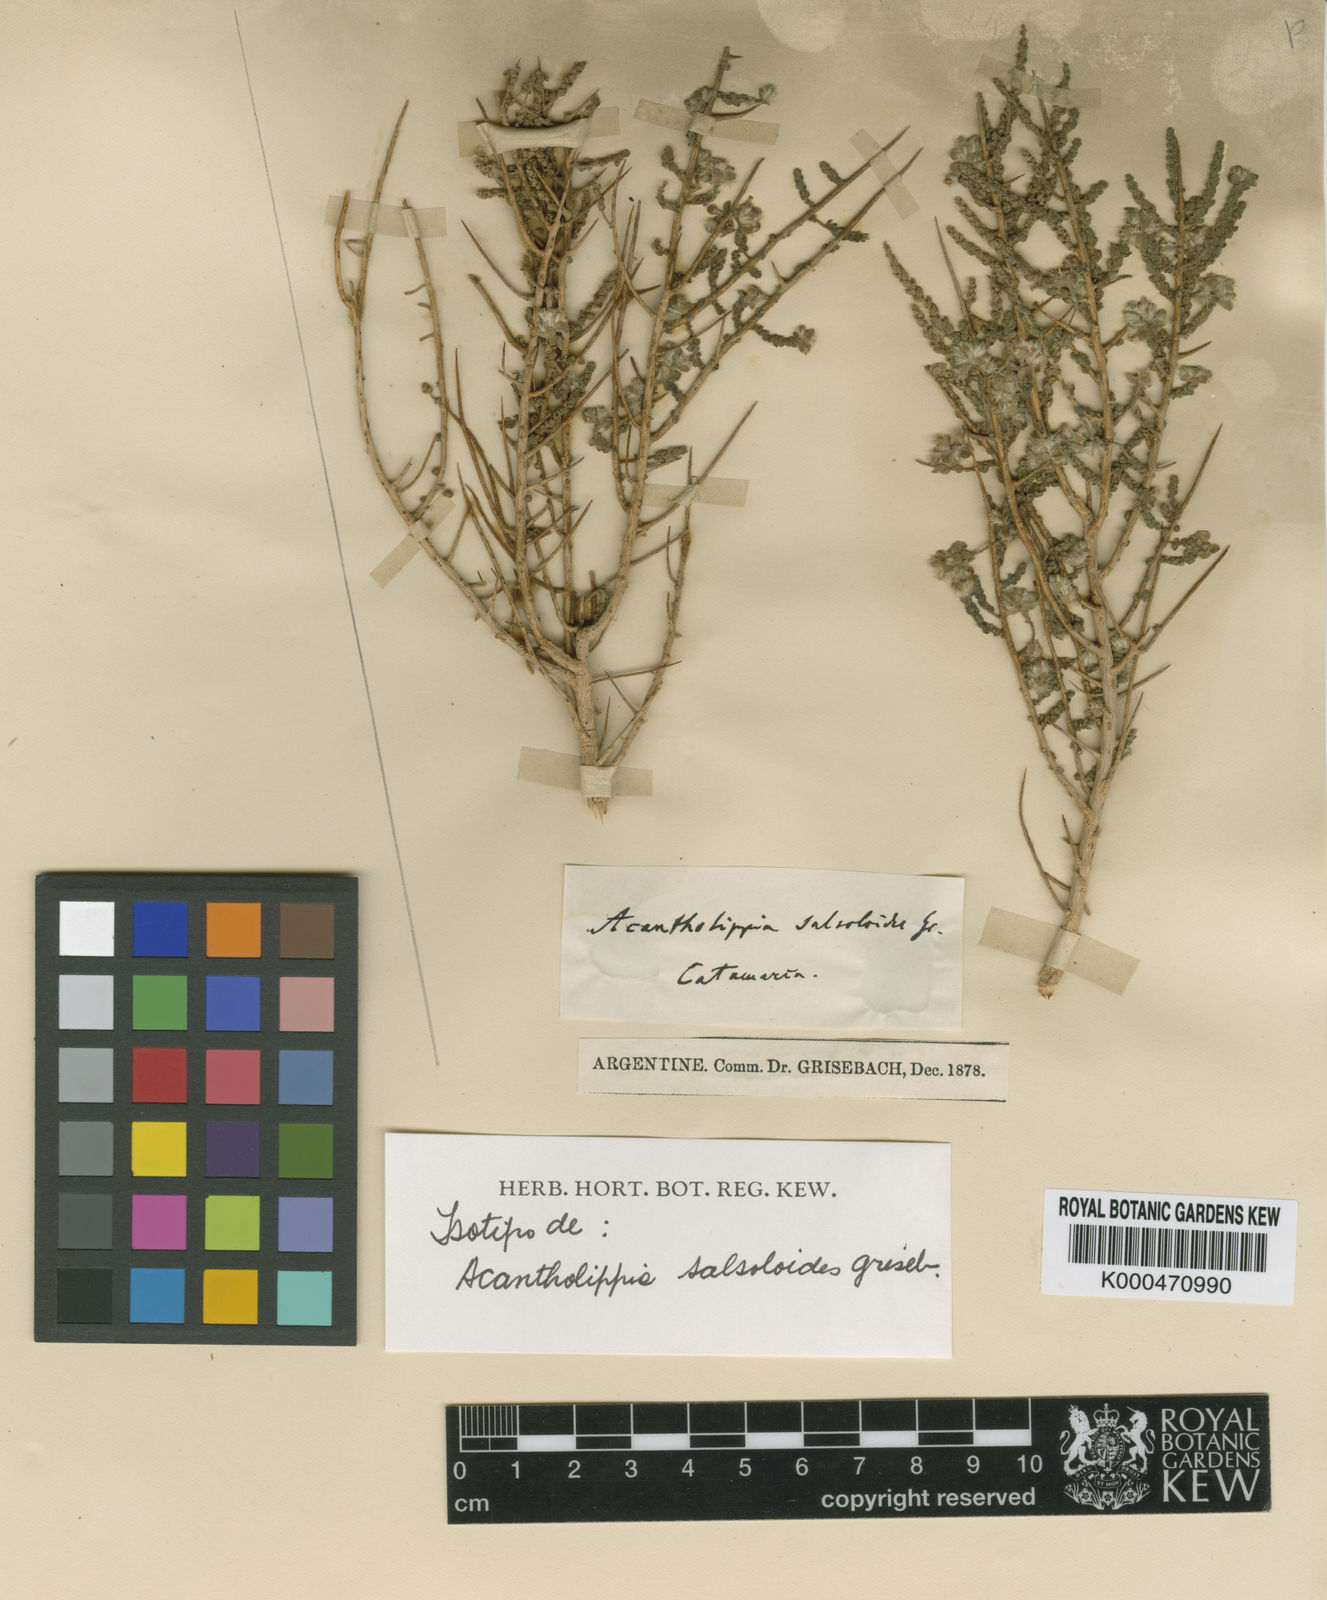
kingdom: Plantae
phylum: Tracheophyta
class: Magnoliopsida
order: Lamiales
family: Verbenaceae
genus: Aloysia
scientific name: Aloysia salsoloides
